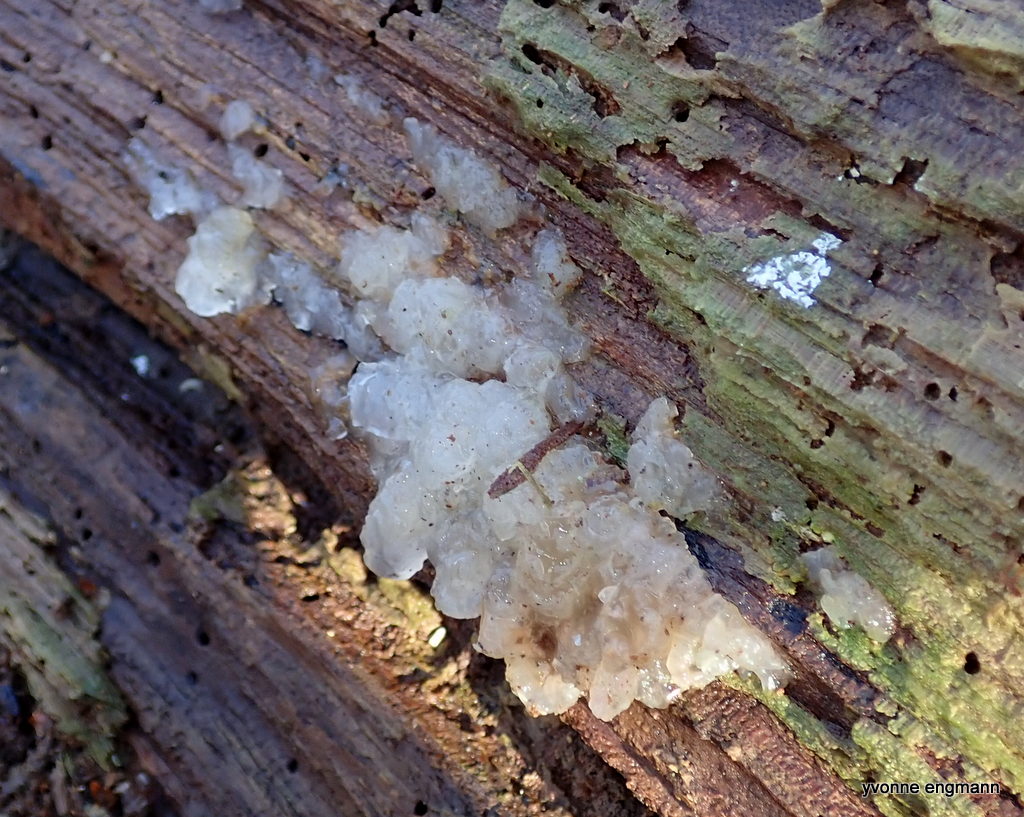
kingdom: Fungi
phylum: Basidiomycota
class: Agaricomycetes
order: Auriculariales
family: Hyaloriaceae
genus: Myxarium
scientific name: Myxarium nucleatum
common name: klar bævretop
